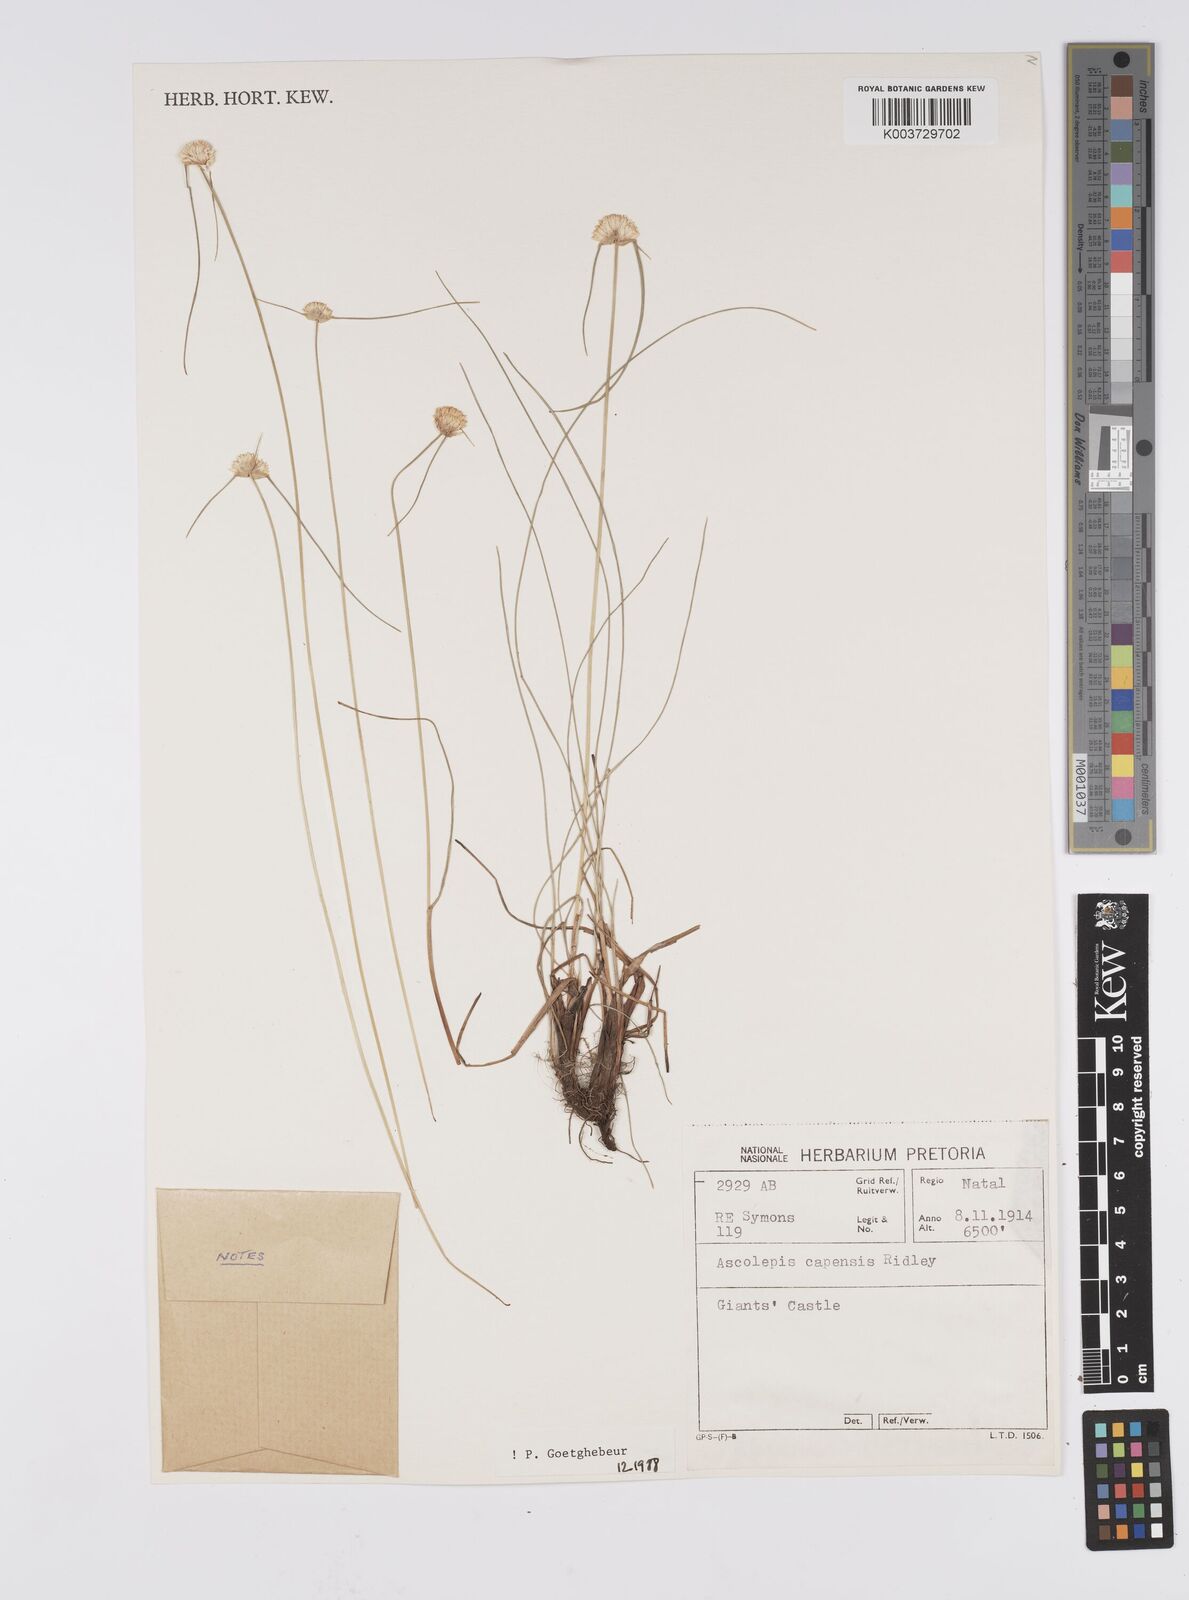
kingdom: Plantae
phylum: Tracheophyta
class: Liliopsida
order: Poales
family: Cyperaceae
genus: Cyperus
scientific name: Cyperus capensis
